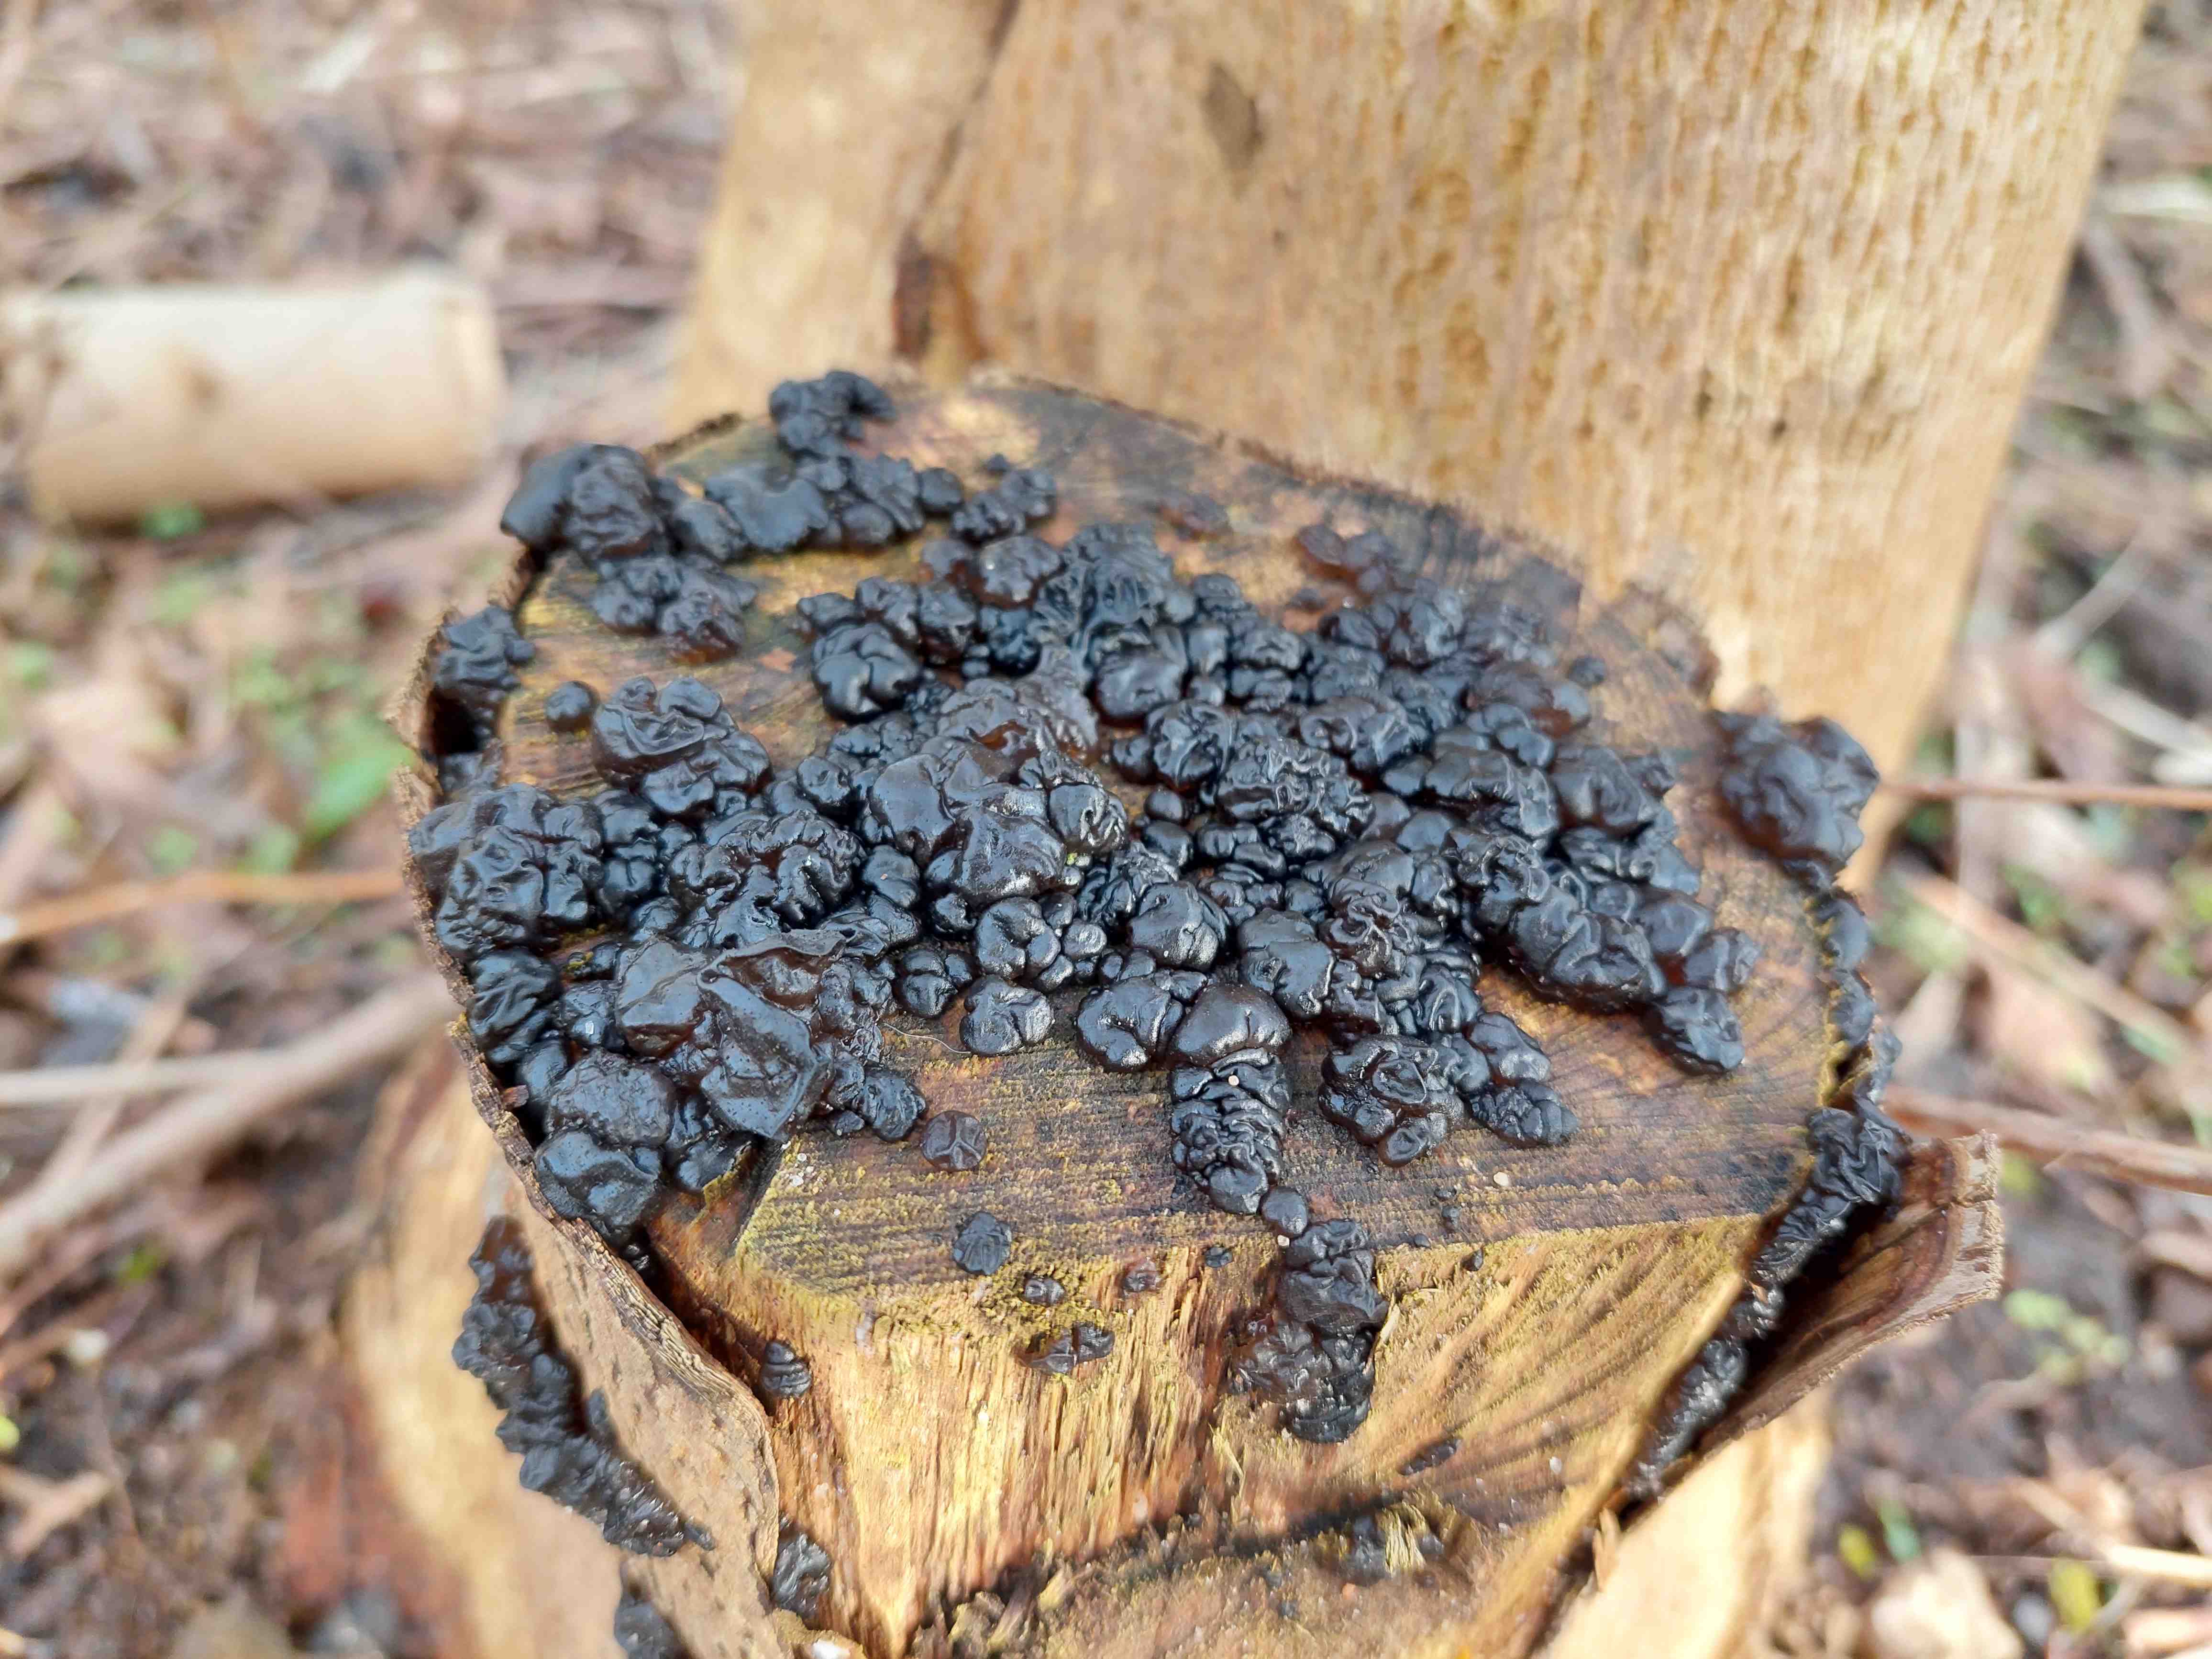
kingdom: Fungi
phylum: Basidiomycota
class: Agaricomycetes
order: Auriculariales
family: Auriculariaceae
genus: Exidia
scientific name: Exidia nigricans
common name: almindelig bævretop
